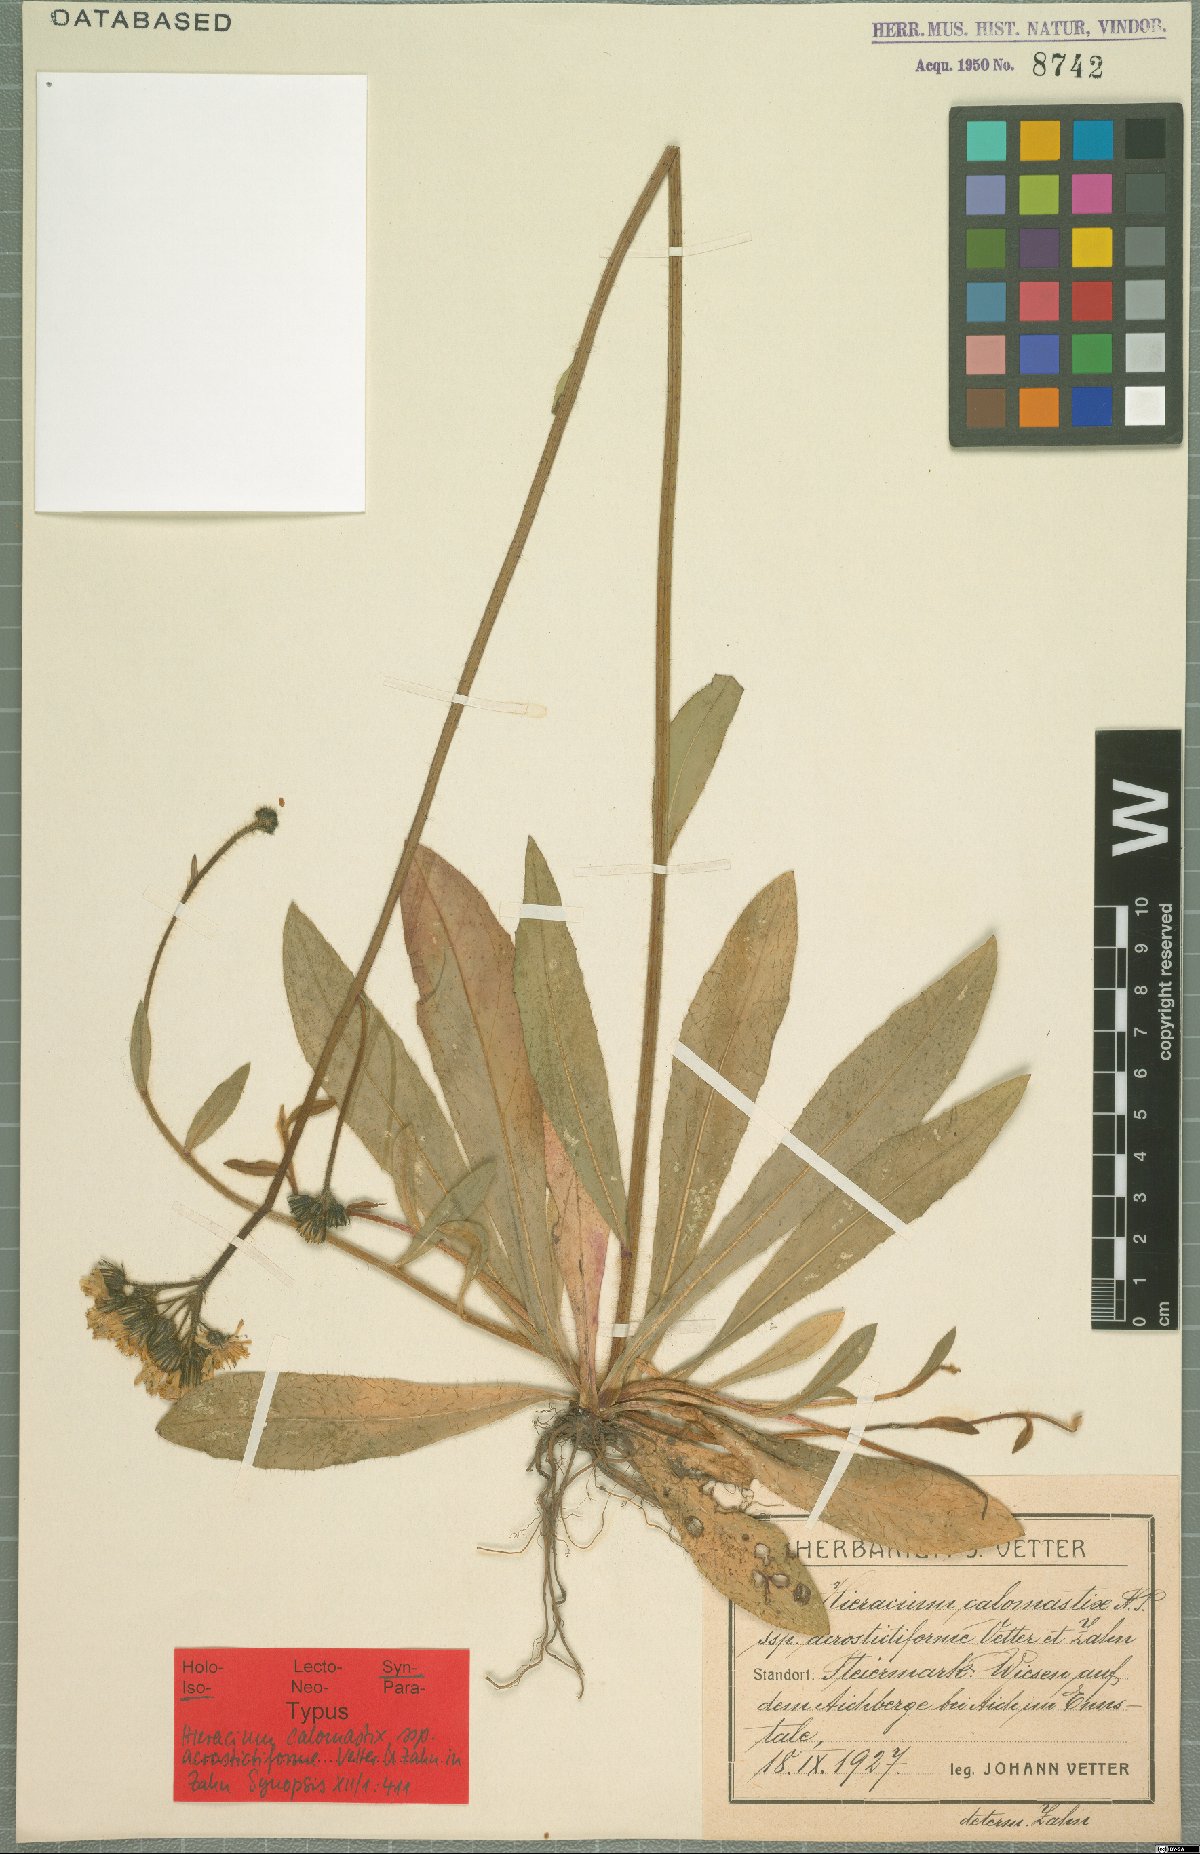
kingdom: Plantae
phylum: Tracheophyta
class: Magnoliopsida
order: Asterales
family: Asteraceae
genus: Pilosella
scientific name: Pilosella calomastix
